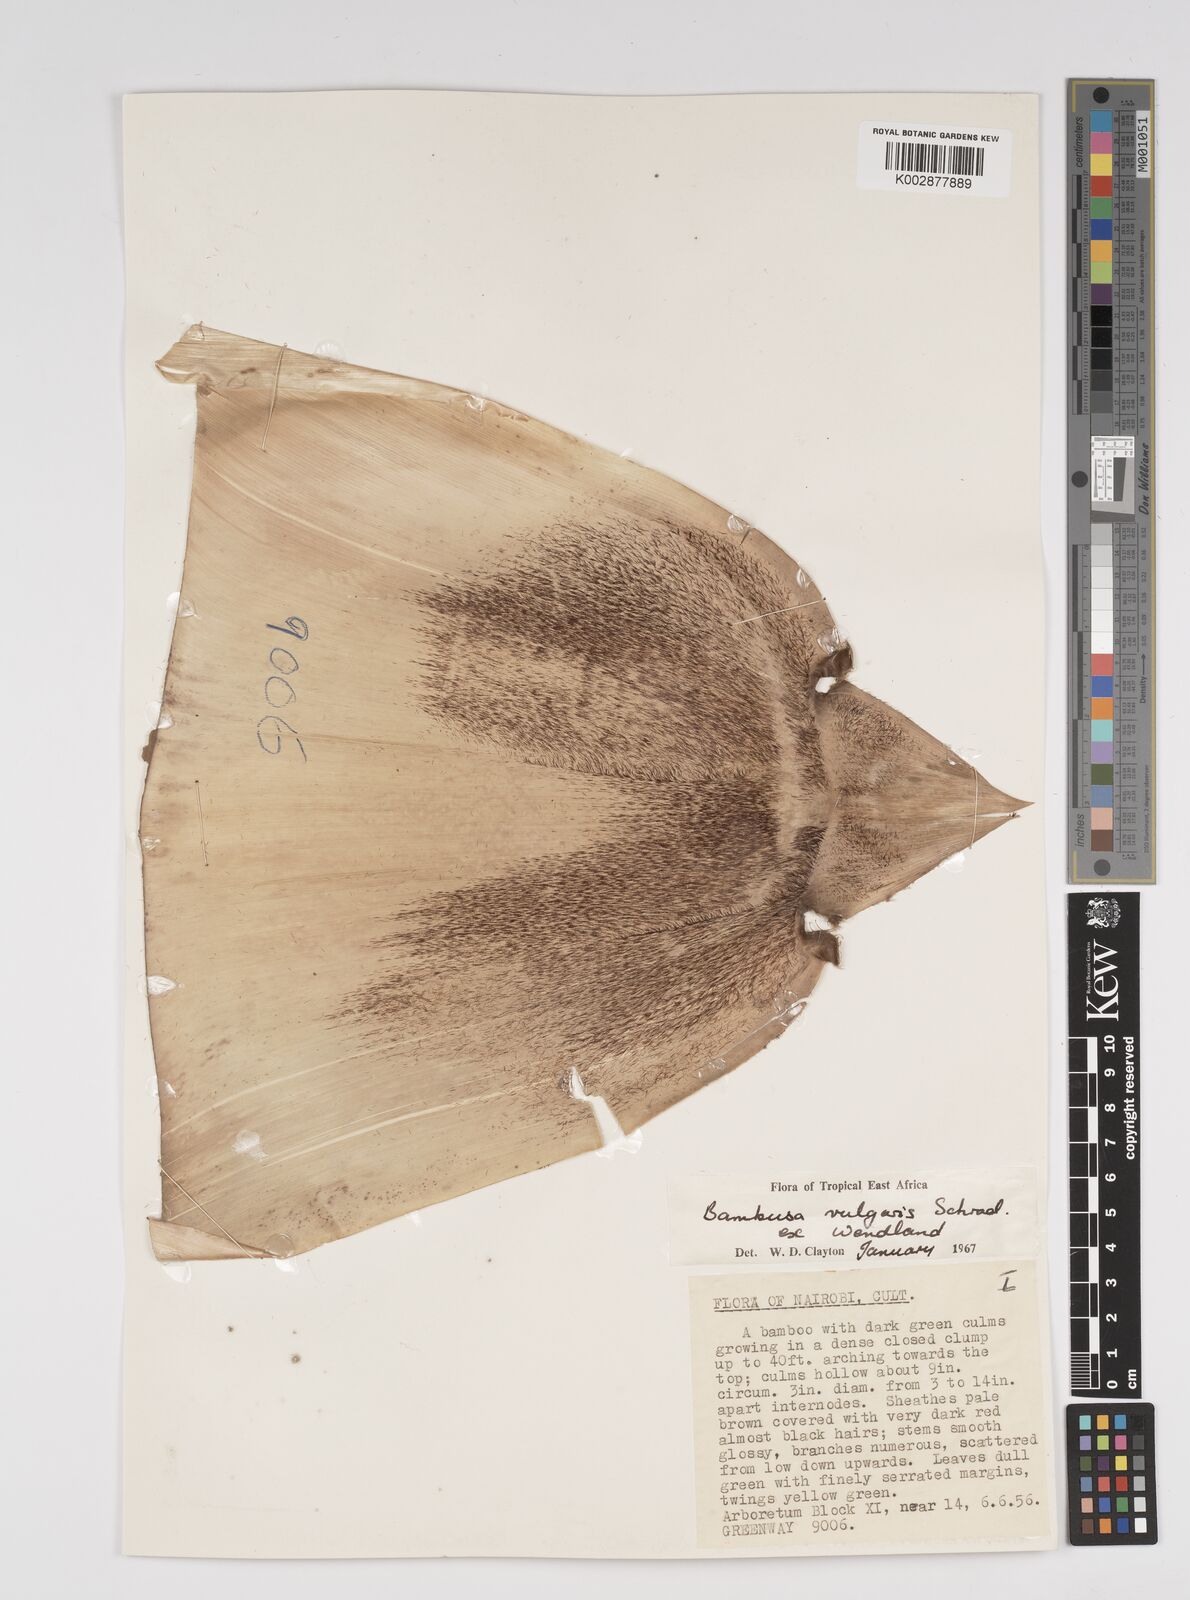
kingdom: Plantae
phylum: Tracheophyta
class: Liliopsida
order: Poales
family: Poaceae
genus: Bambusa
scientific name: Bambusa balcooa
